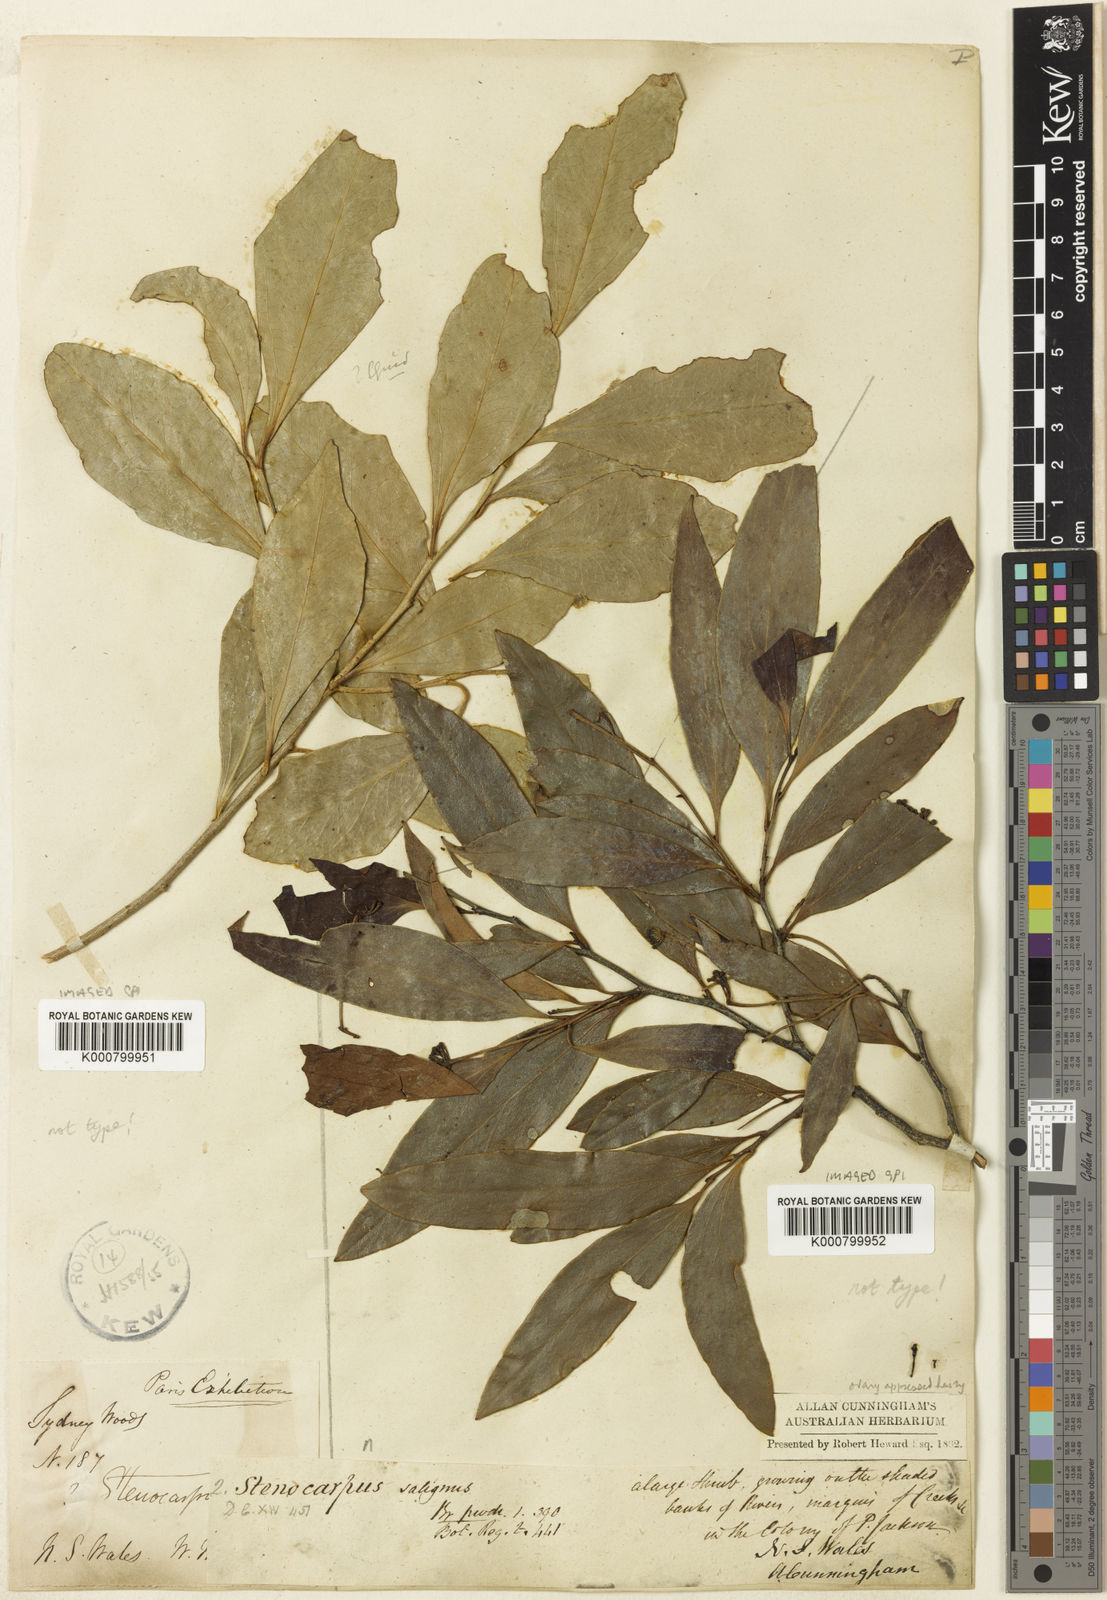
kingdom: Plantae
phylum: Tracheophyta
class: Magnoliopsida
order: Proteales
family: Proteaceae
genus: Stenocarpus
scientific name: Stenocarpus salignus
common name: Red silky-oak
